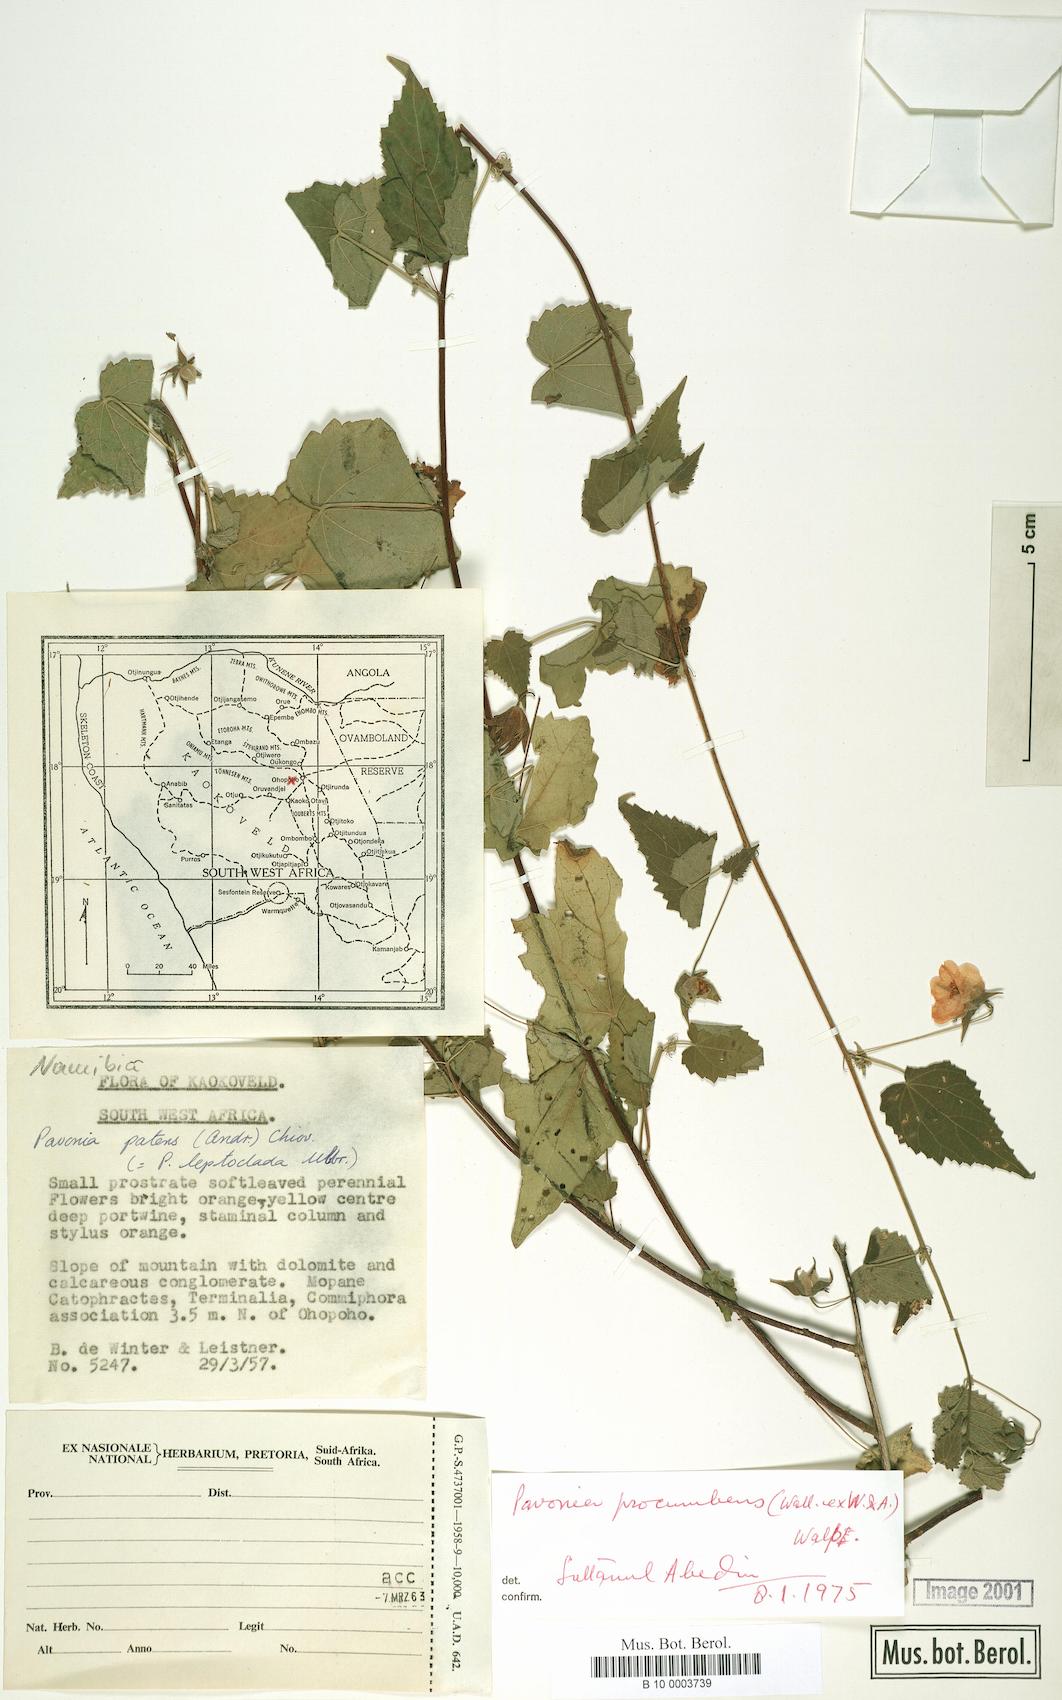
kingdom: Plantae
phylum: Tracheophyta
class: Magnoliopsida
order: Malvales
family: Malvaceae
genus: Pavonia
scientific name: Pavonia procumbens
